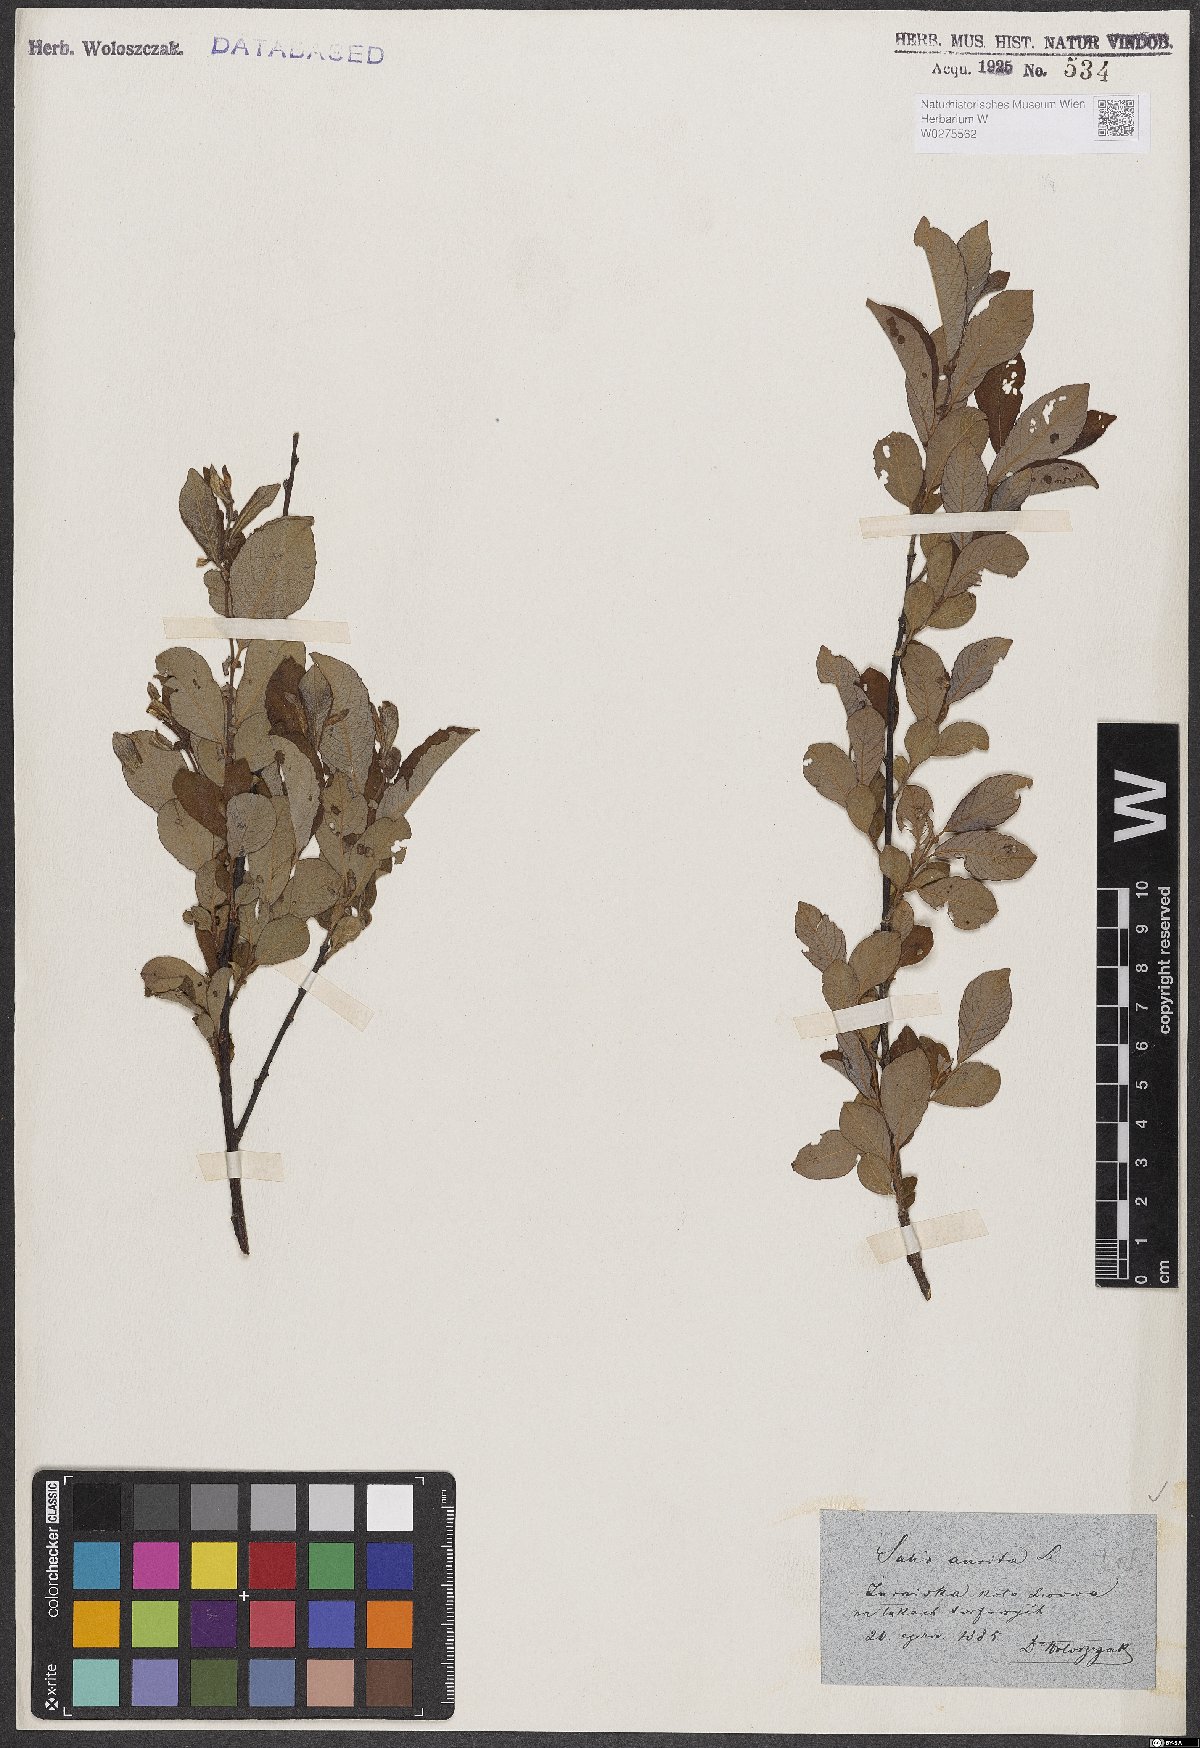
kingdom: Plantae
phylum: Tracheophyta
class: Magnoliopsida
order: Malpighiales
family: Salicaceae
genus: Salix
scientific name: Salix aurita
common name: Eared willow
